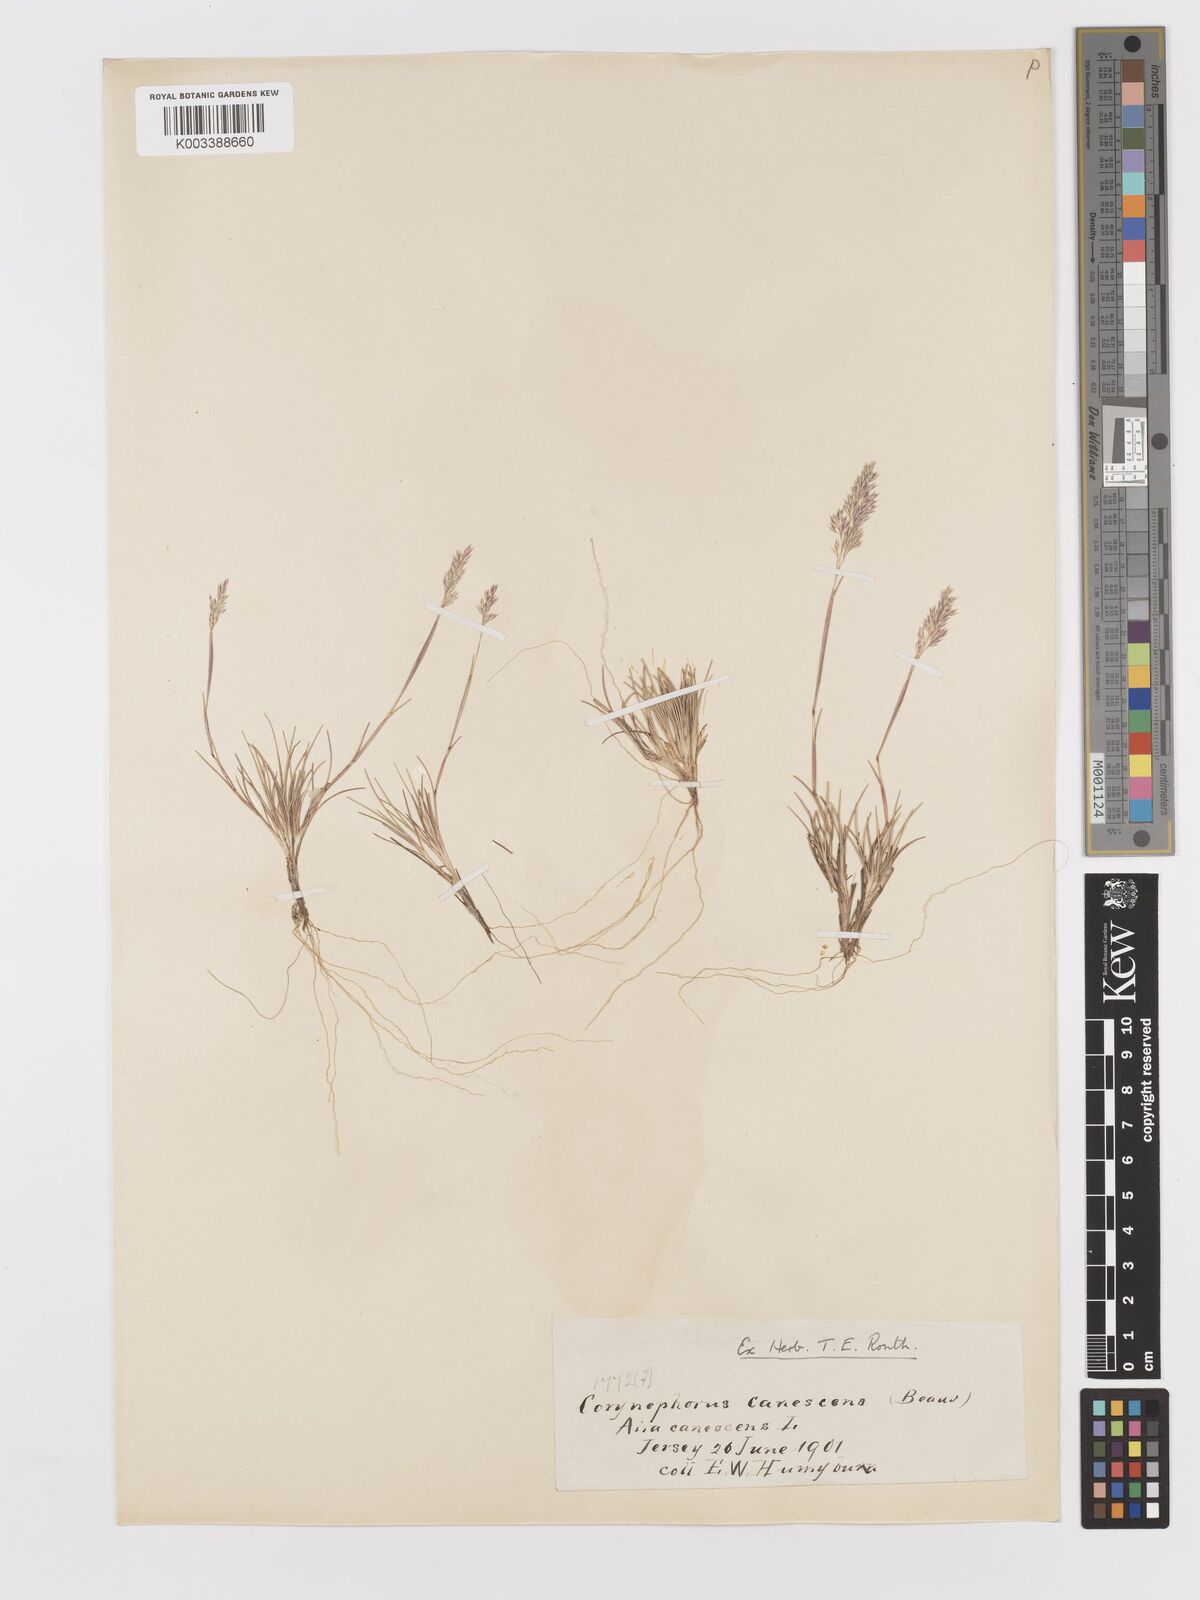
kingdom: Plantae
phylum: Tracheophyta
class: Liliopsida
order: Poales
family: Poaceae
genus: Corynephorus
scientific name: Corynephorus canescens
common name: Grey hair-grass
